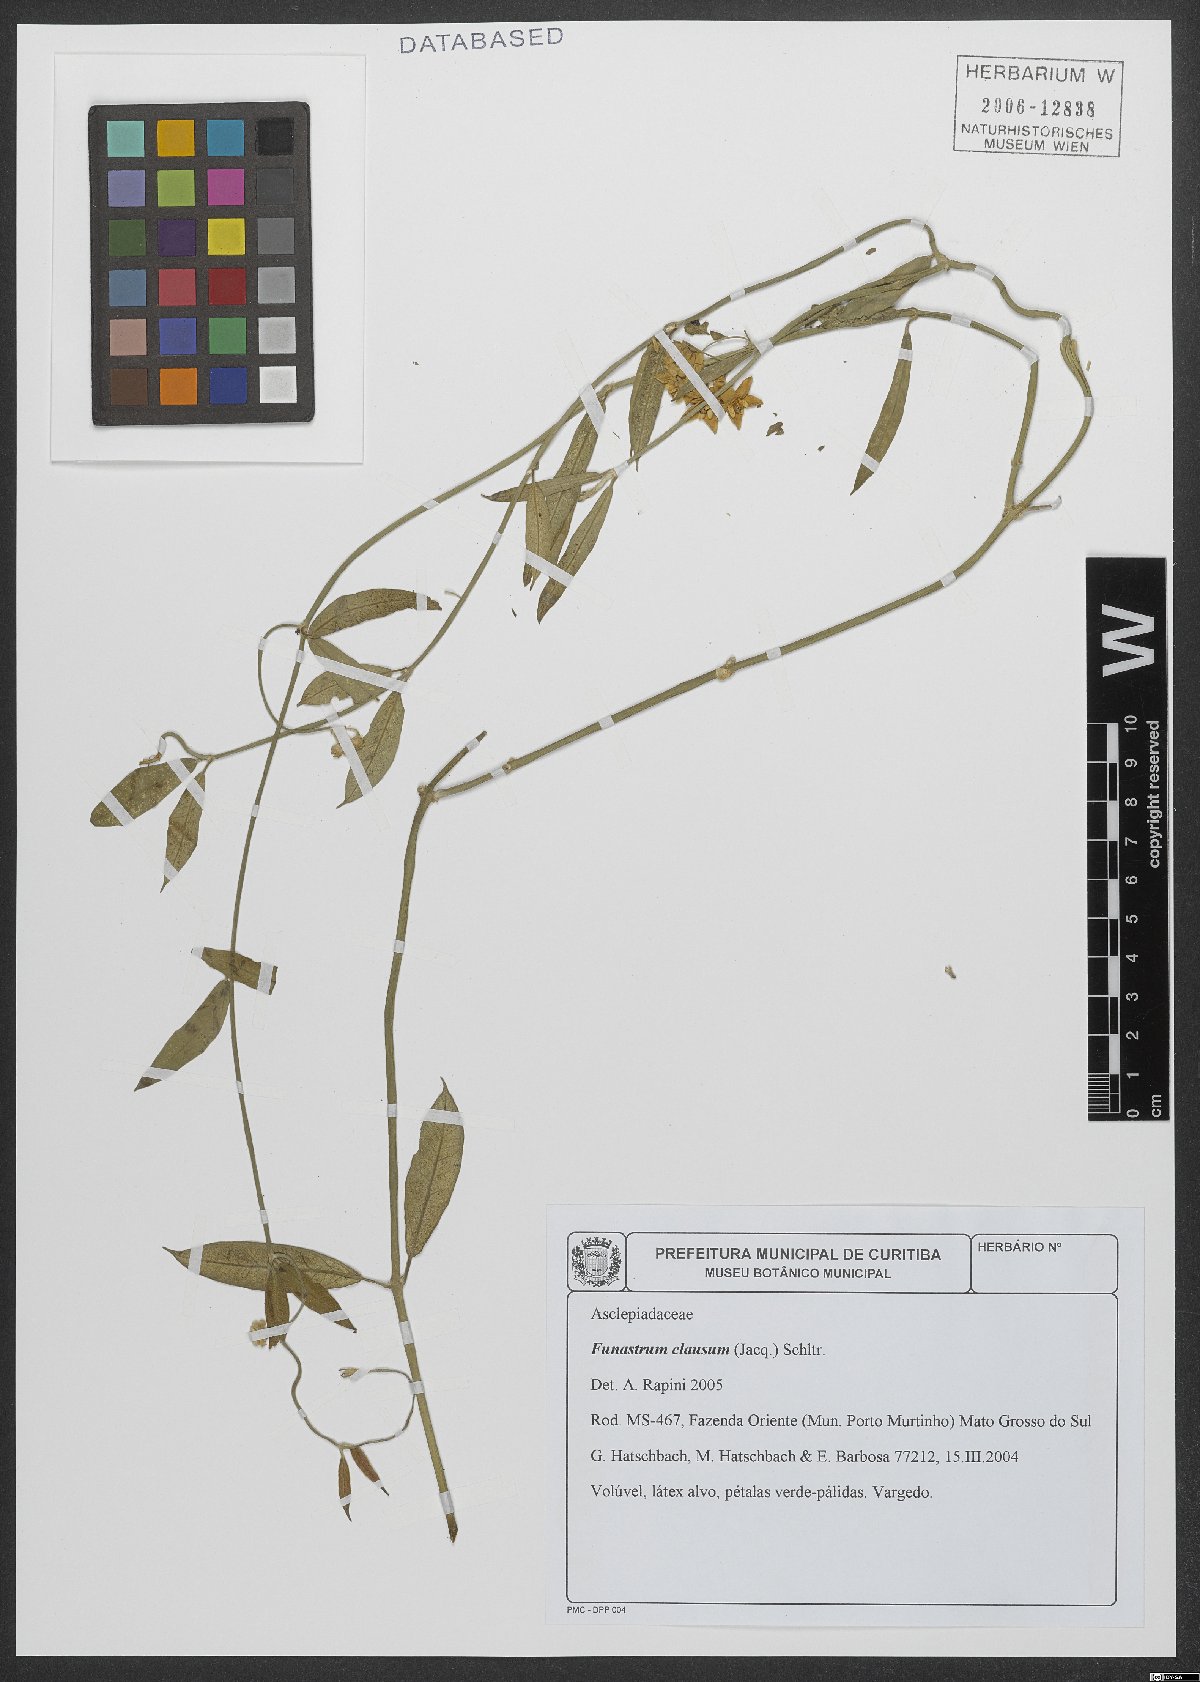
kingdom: Plantae
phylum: Tracheophyta
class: Magnoliopsida
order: Gentianales
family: Apocynaceae
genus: Funastrum
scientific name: Funastrum clausum
